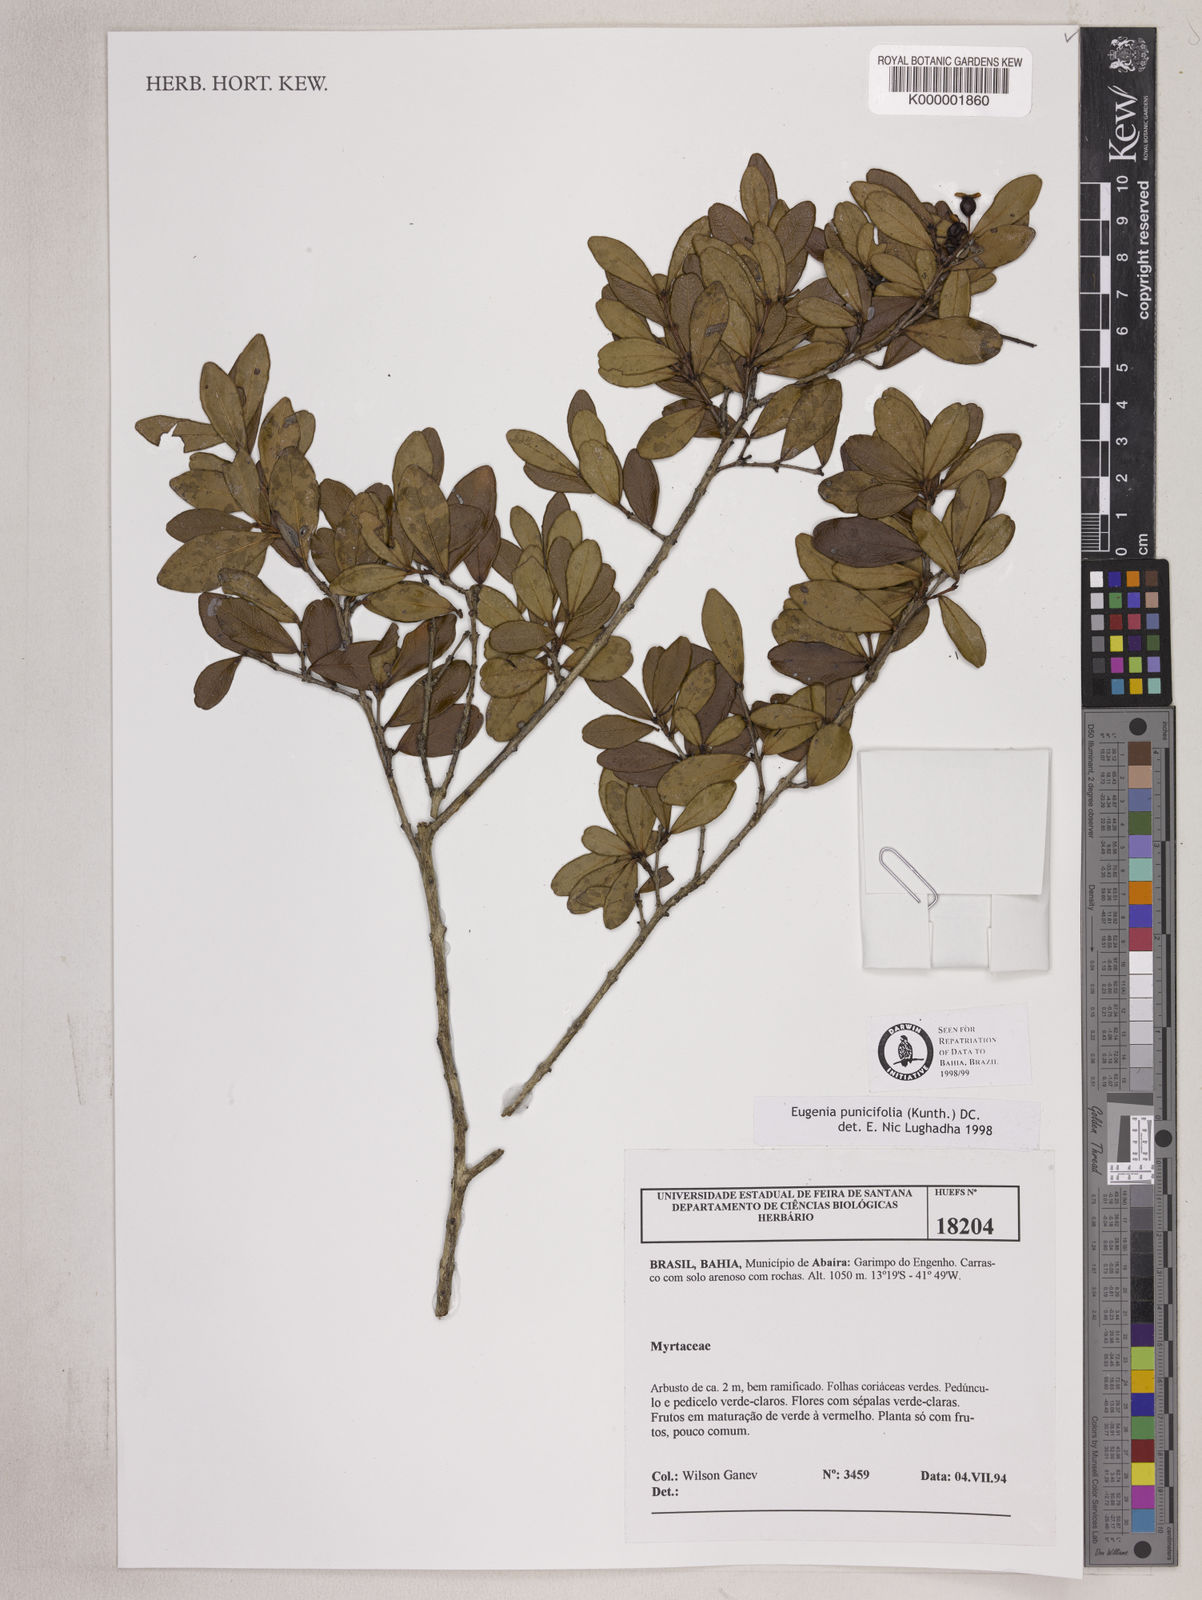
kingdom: Plantae
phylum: Tracheophyta
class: Magnoliopsida
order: Myrtales
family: Myrtaceae
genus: Eugenia
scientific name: Eugenia punicifolia
